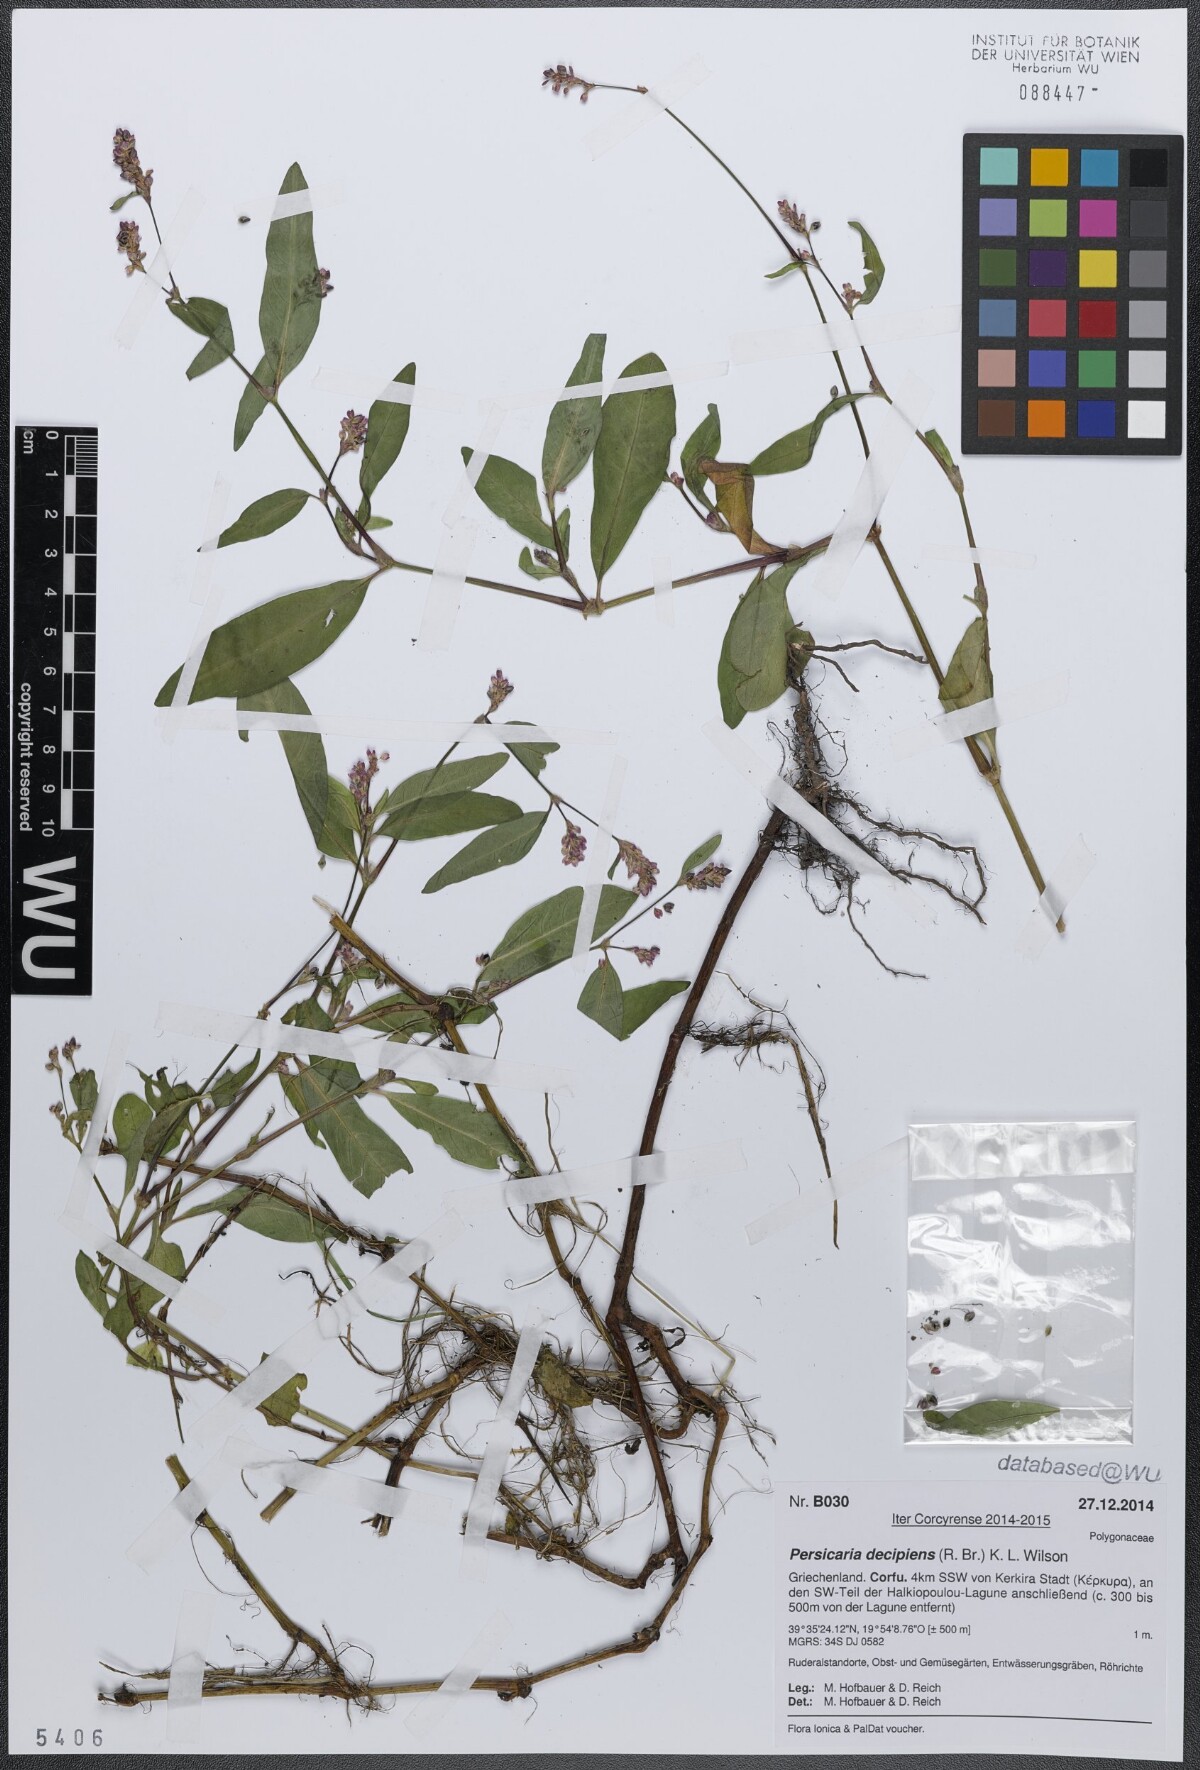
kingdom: Plantae
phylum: Tracheophyta
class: Magnoliopsida
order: Caryophyllales
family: Polygonaceae
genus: Persicaria
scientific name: Persicaria decipiens
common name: Willow-weed
